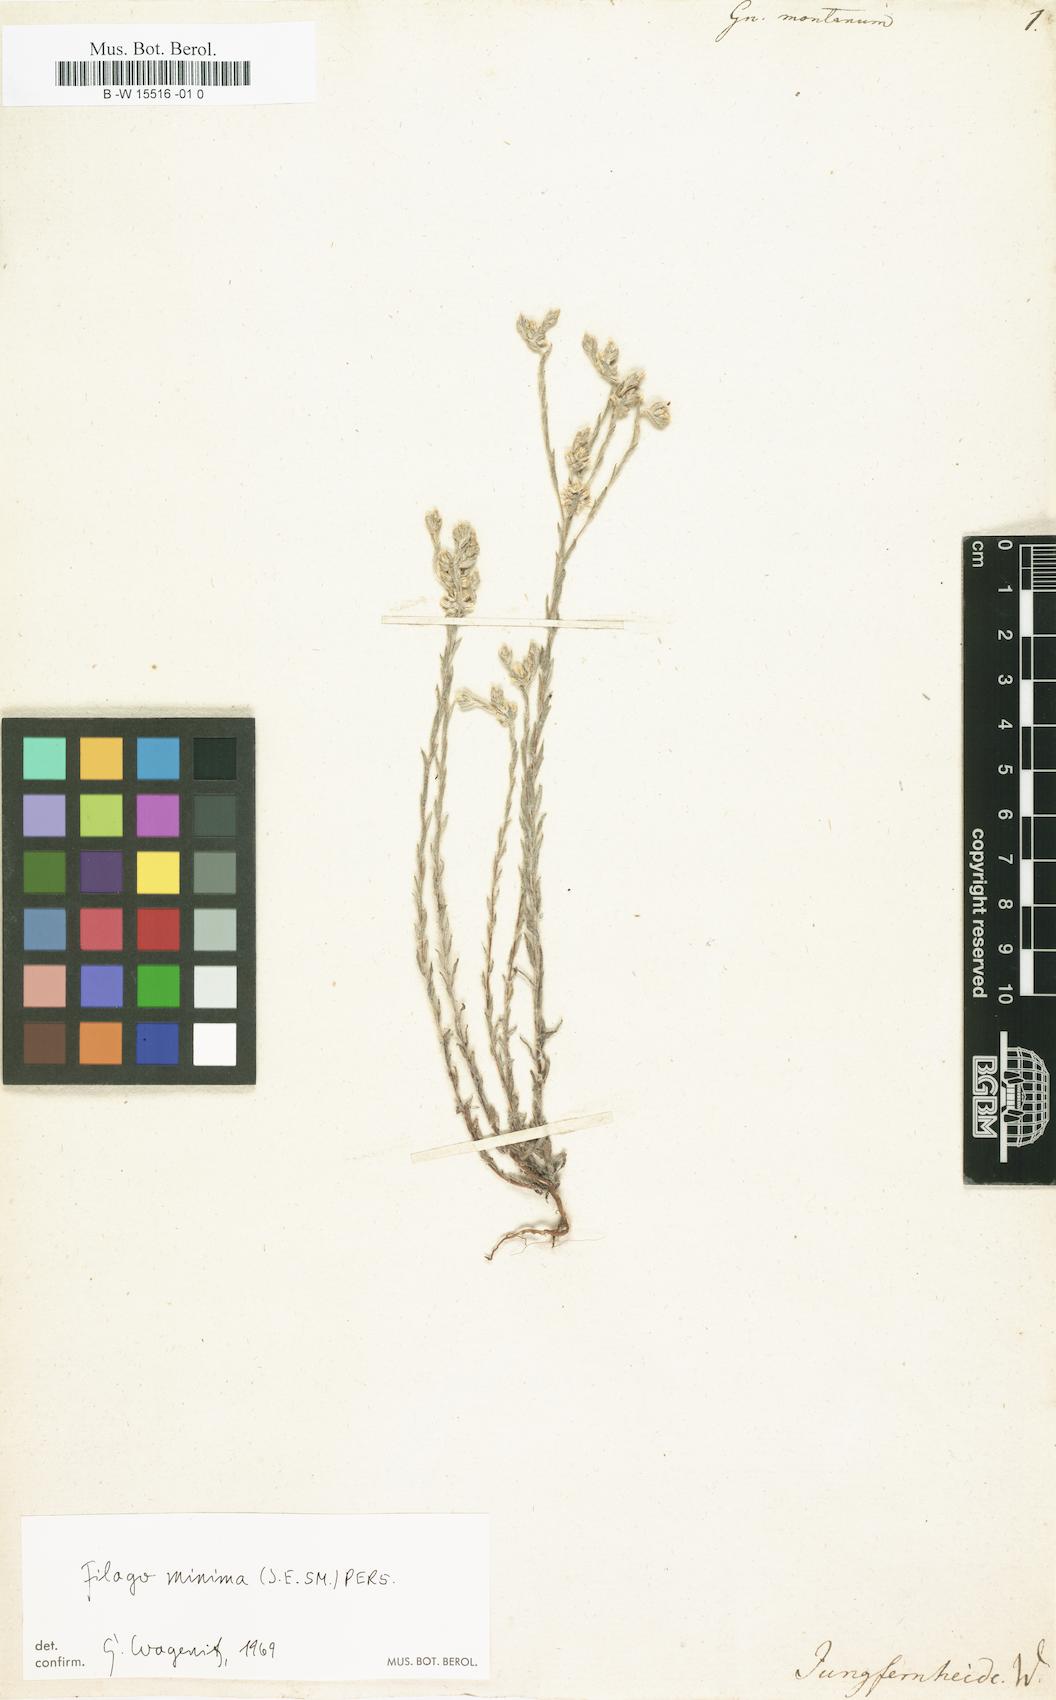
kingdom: Plantae
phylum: Tracheophyta
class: Magnoliopsida
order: Asterales
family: Asteraceae
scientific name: Asteraceae
